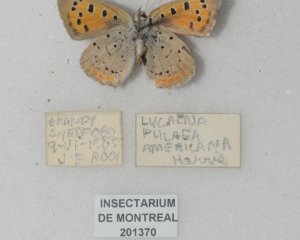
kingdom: Animalia
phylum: Arthropoda
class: Insecta
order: Lepidoptera
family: Lycaenidae
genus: Lycaena
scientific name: Lycaena phlaeas
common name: American Copper
